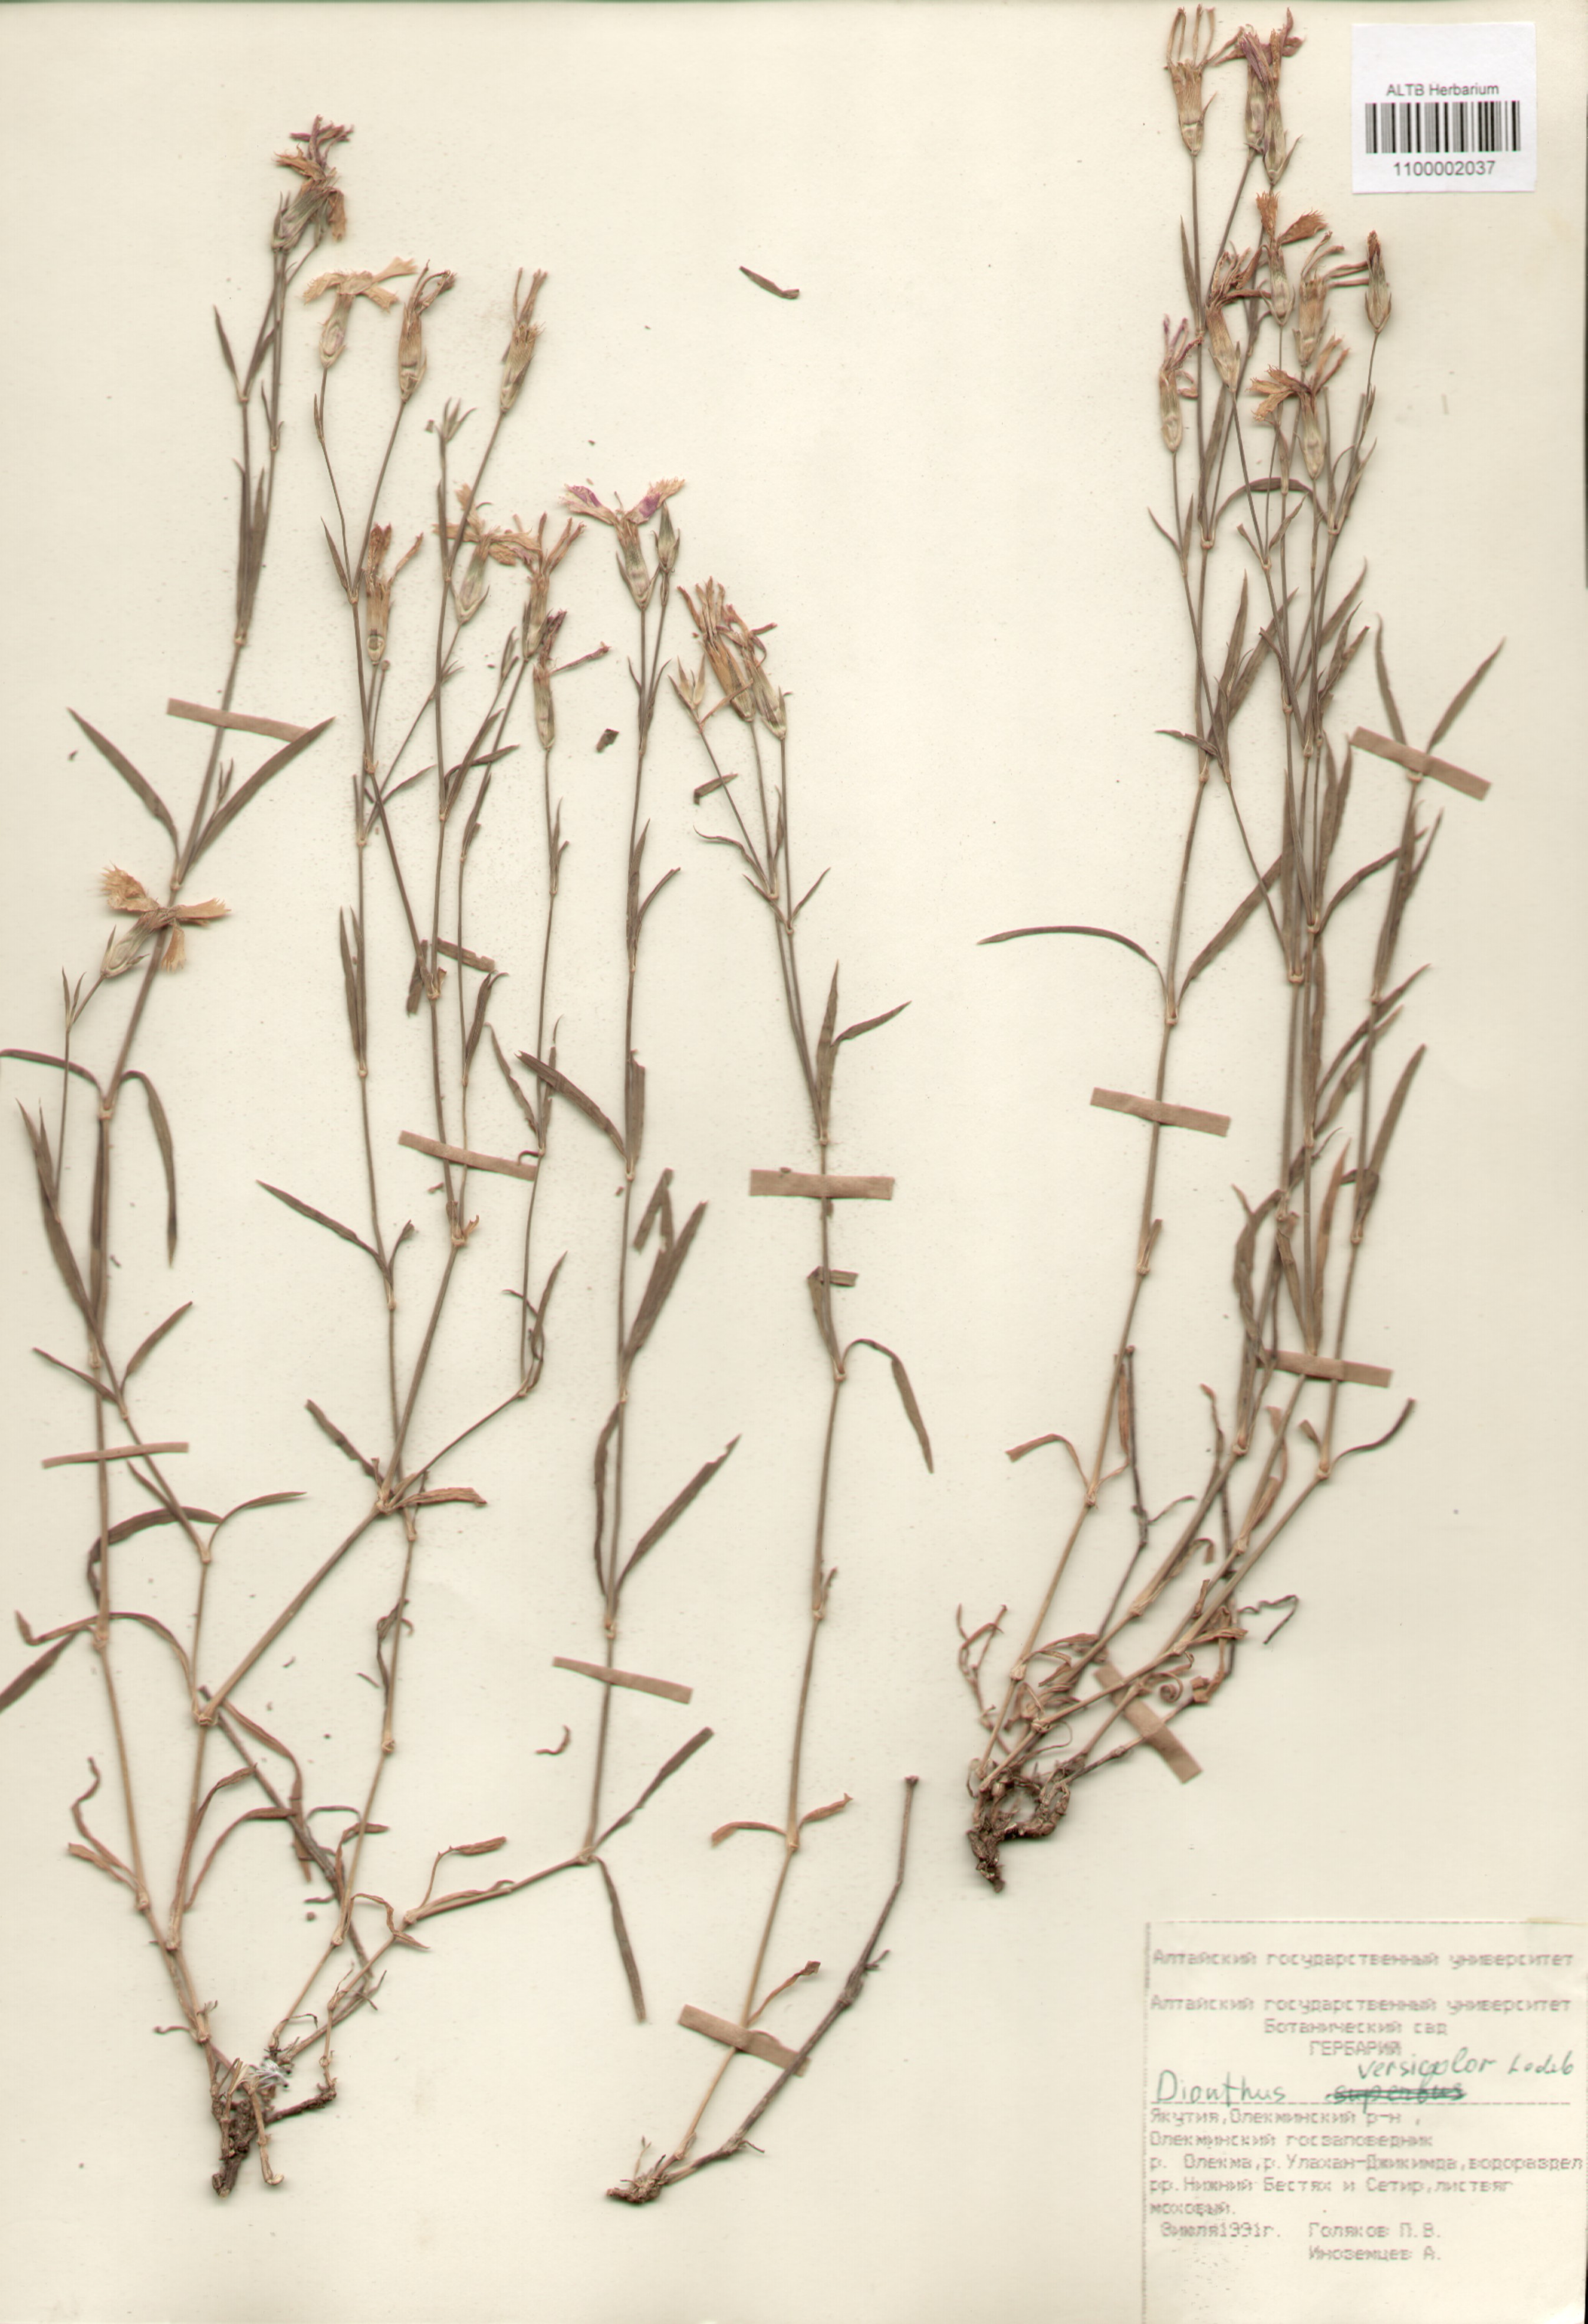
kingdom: Plantae
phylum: Tracheophyta
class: Magnoliopsida
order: Caryophyllales
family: Caryophyllaceae
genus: Dianthus
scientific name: Dianthus chinensis
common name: Rainbow pink
